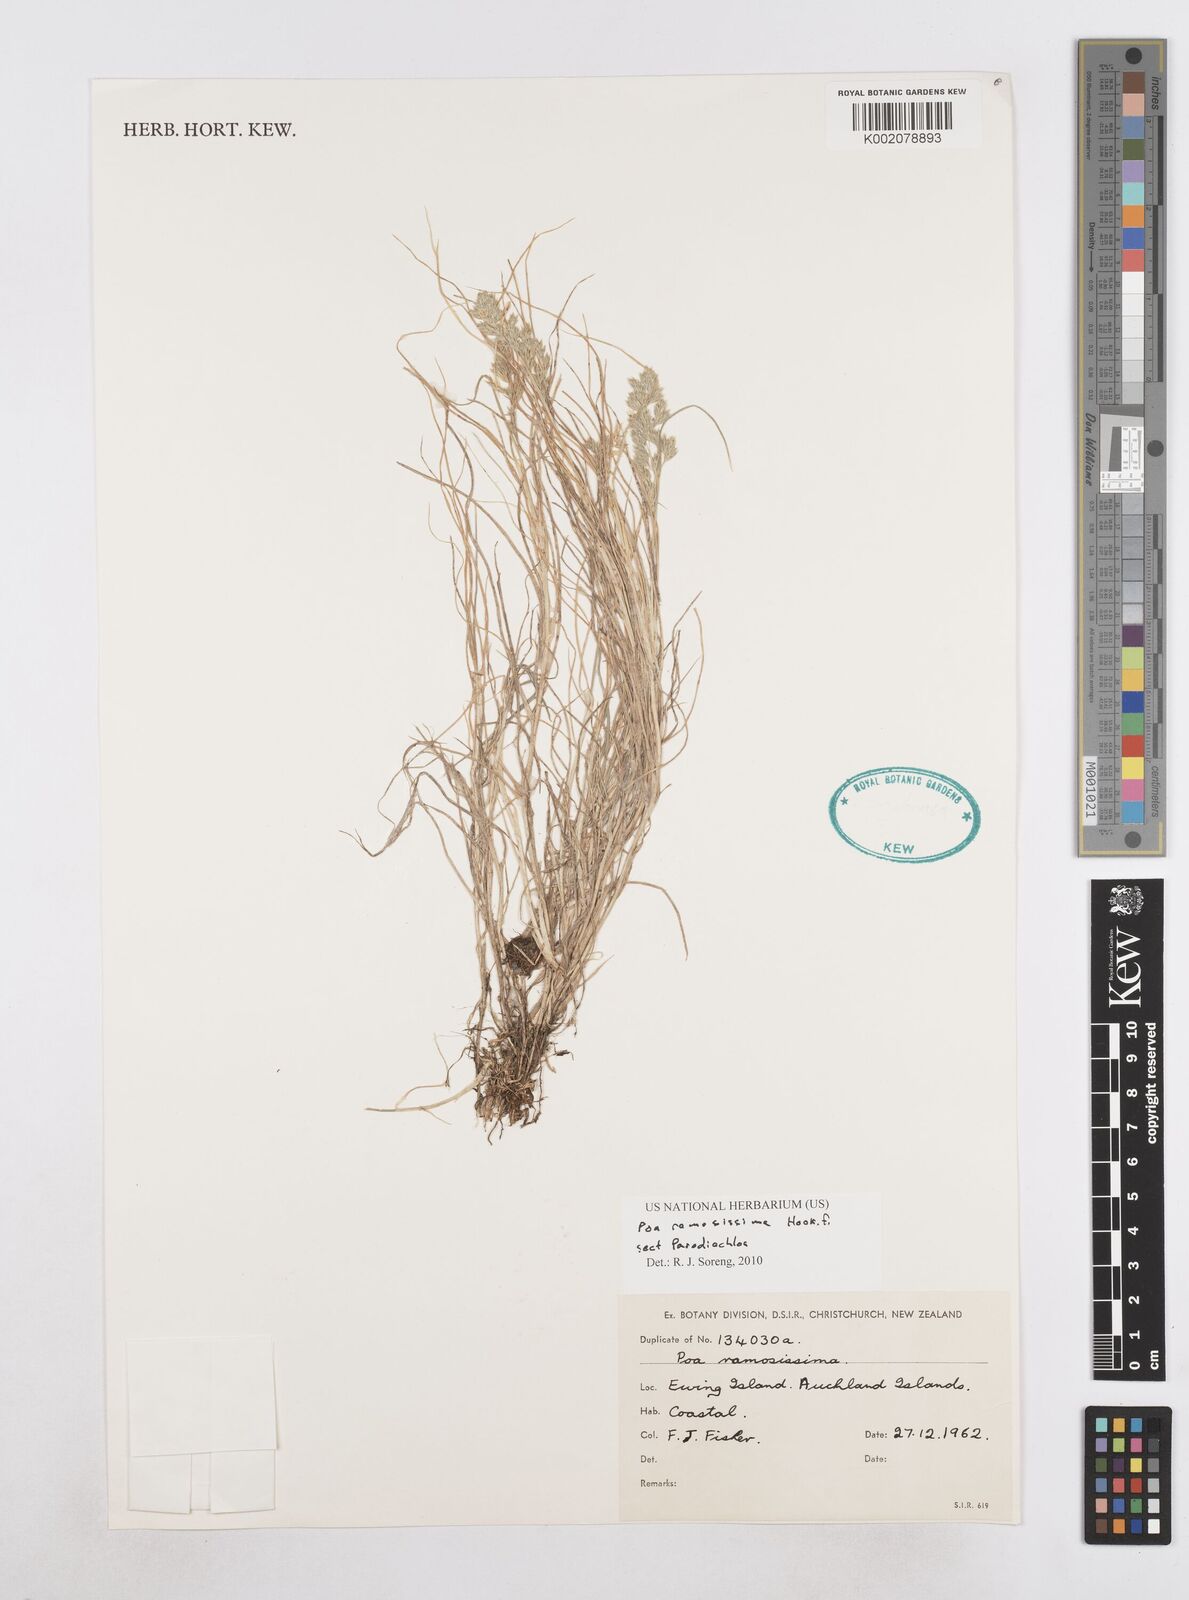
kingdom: Plantae
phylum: Tracheophyta
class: Liliopsida
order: Poales
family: Poaceae
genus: Poa
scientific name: Poa ramosissima
